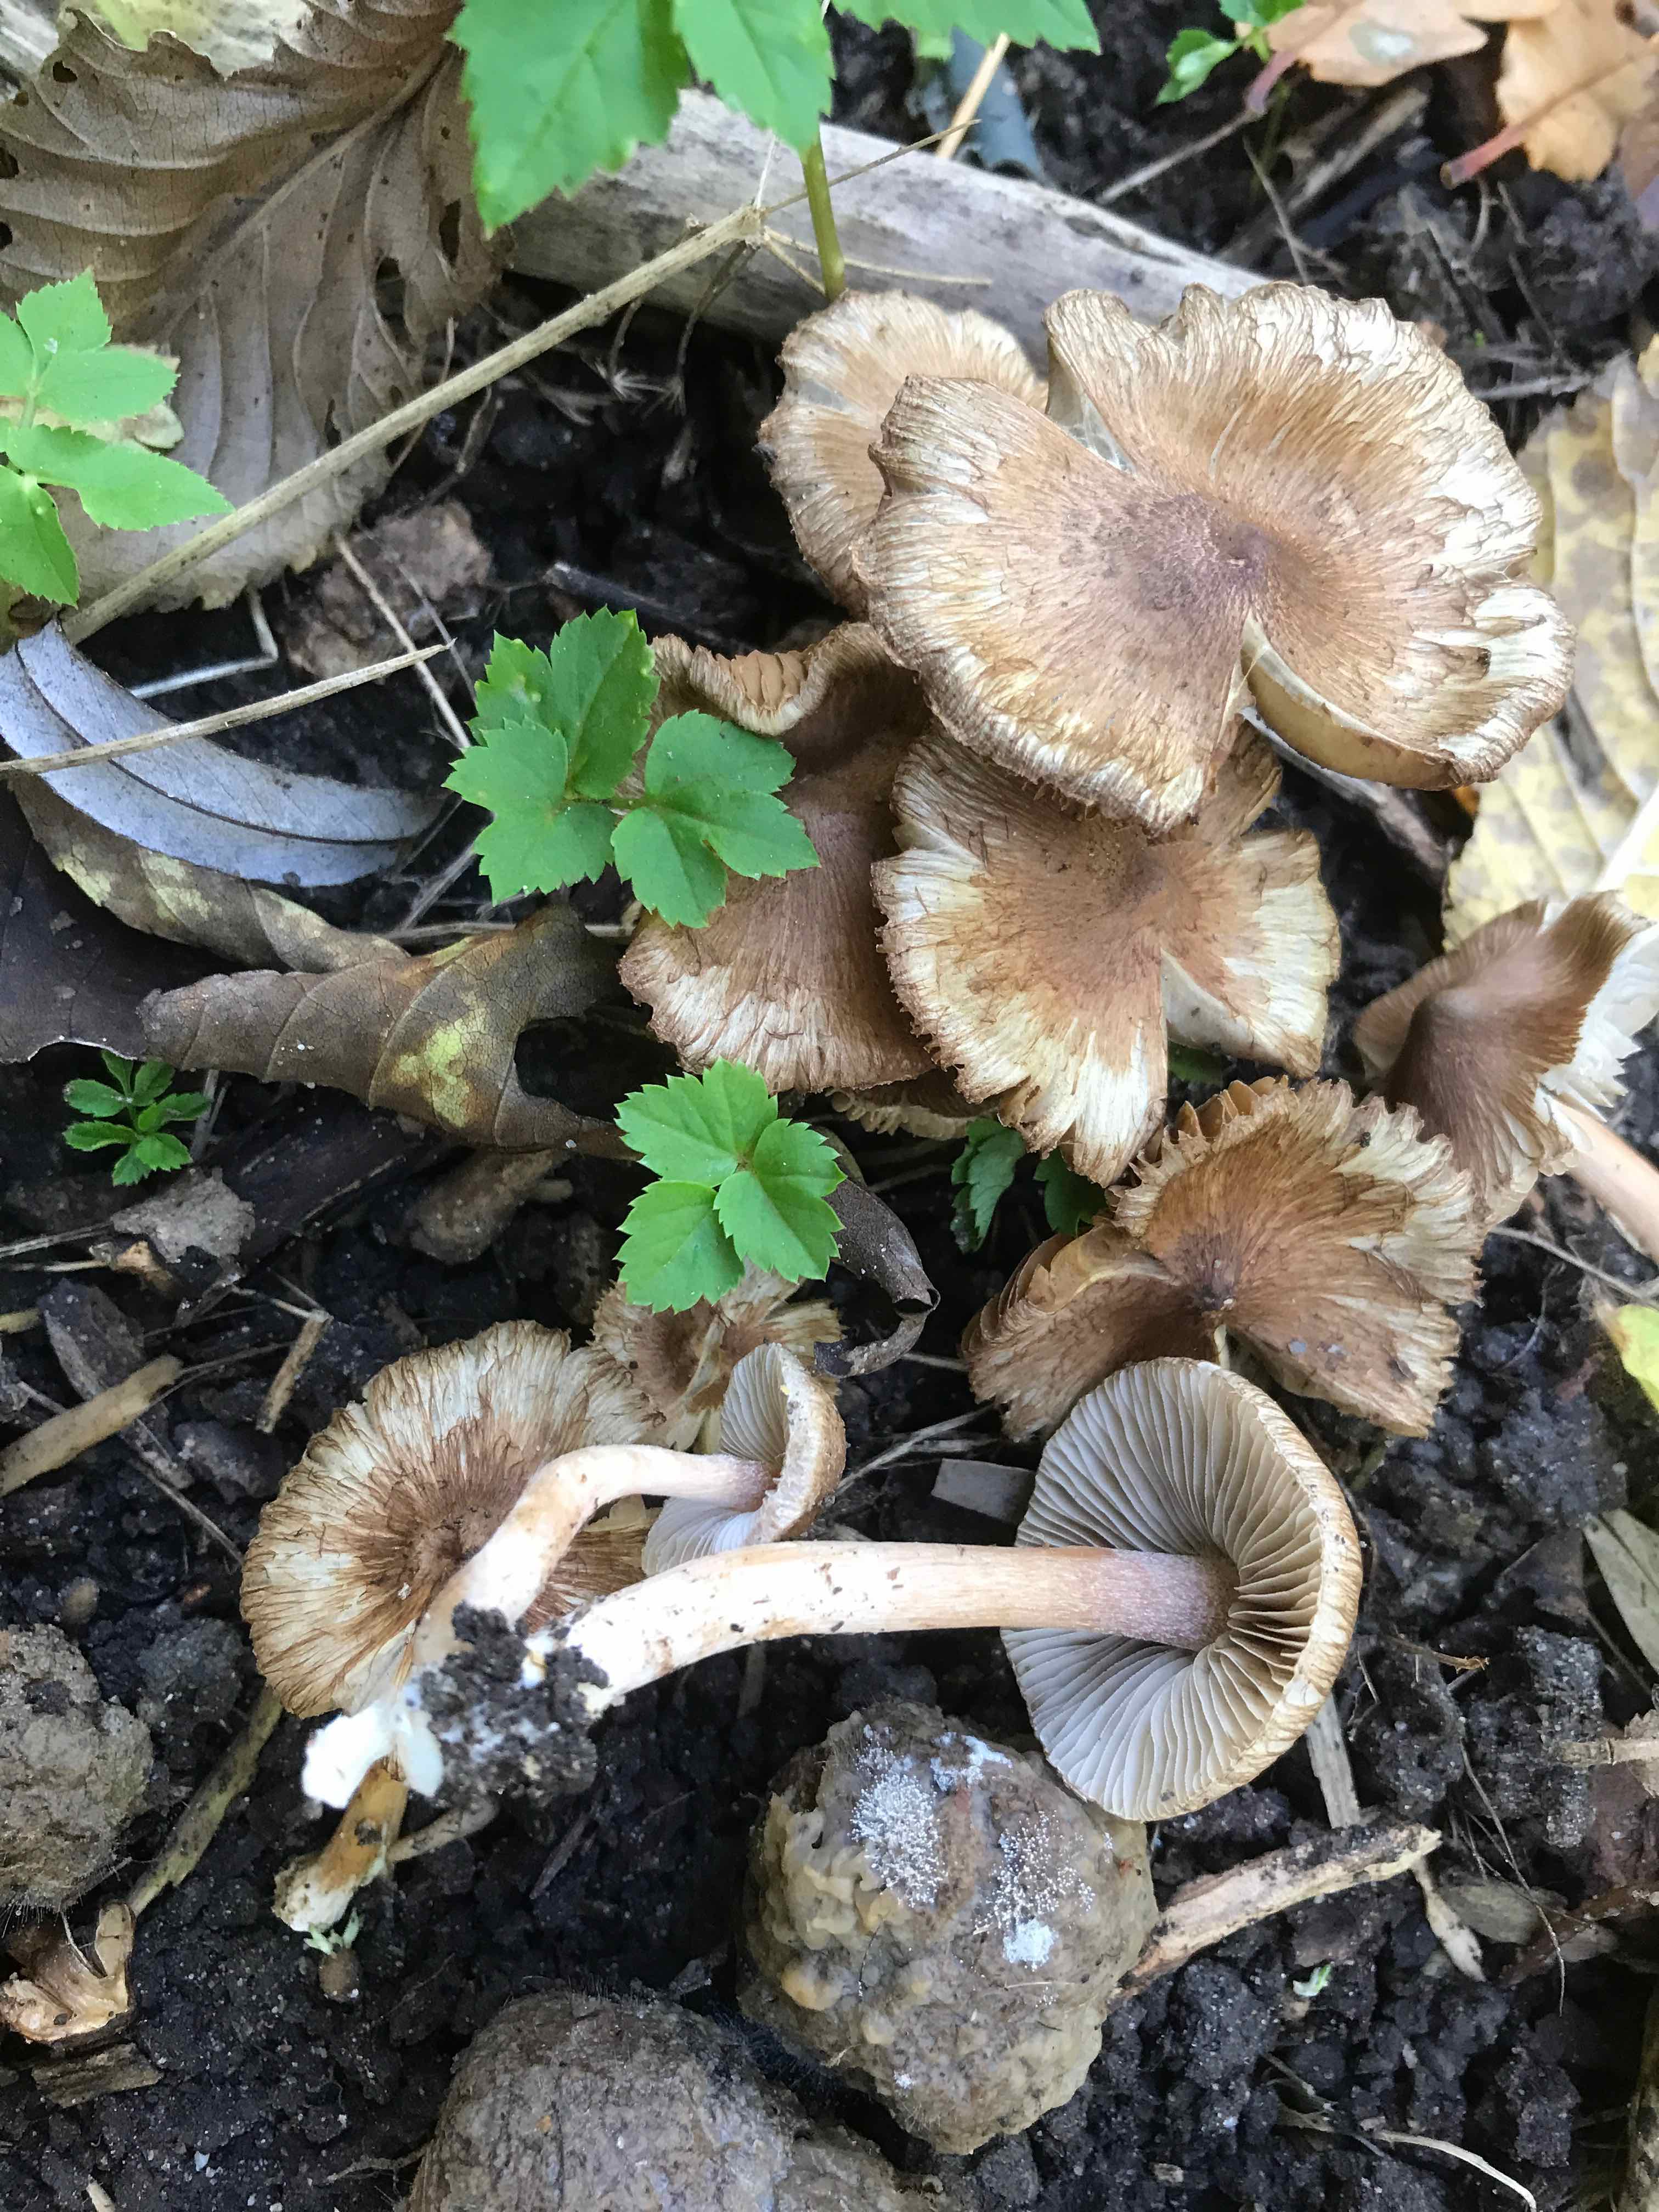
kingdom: Fungi
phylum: Basidiomycota
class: Agaricomycetes
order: Agaricales
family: Inocybaceae
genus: Inocybe
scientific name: Inocybe
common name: trævlhat
